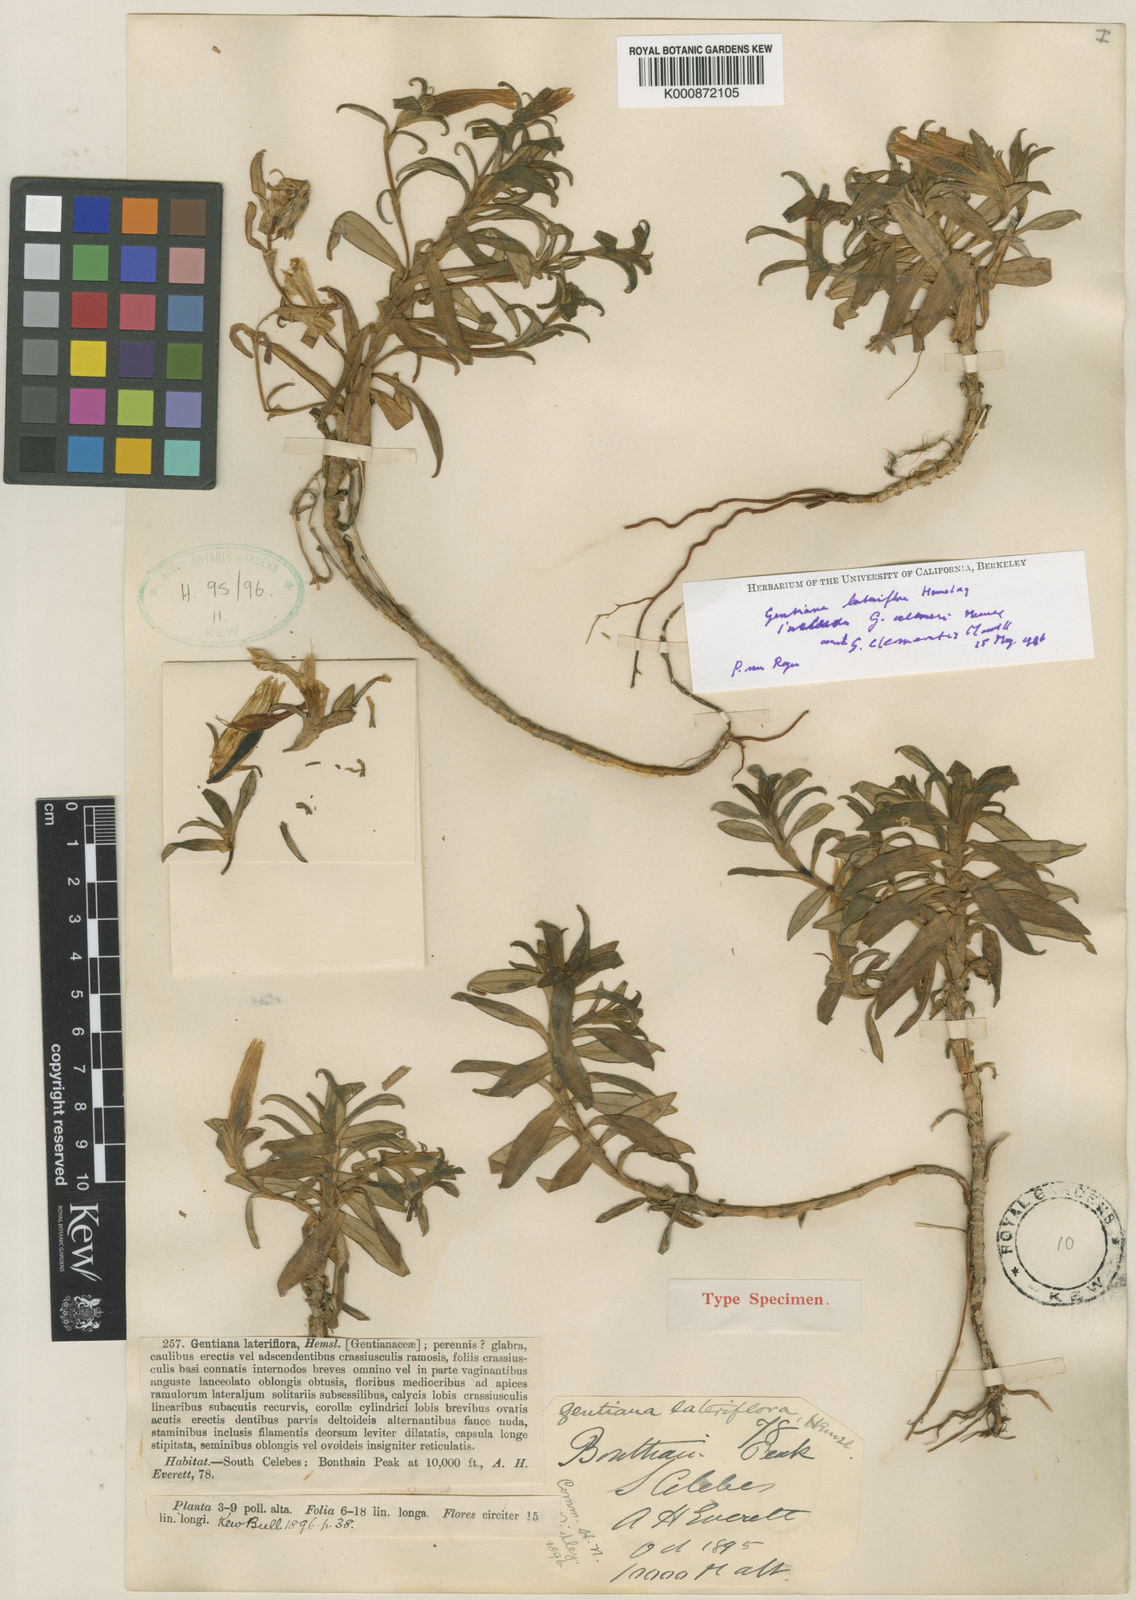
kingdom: Plantae
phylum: Tracheophyta
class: Magnoliopsida
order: Gentianales
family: Gentianaceae
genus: Gentiana
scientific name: Gentiana lateriflora
